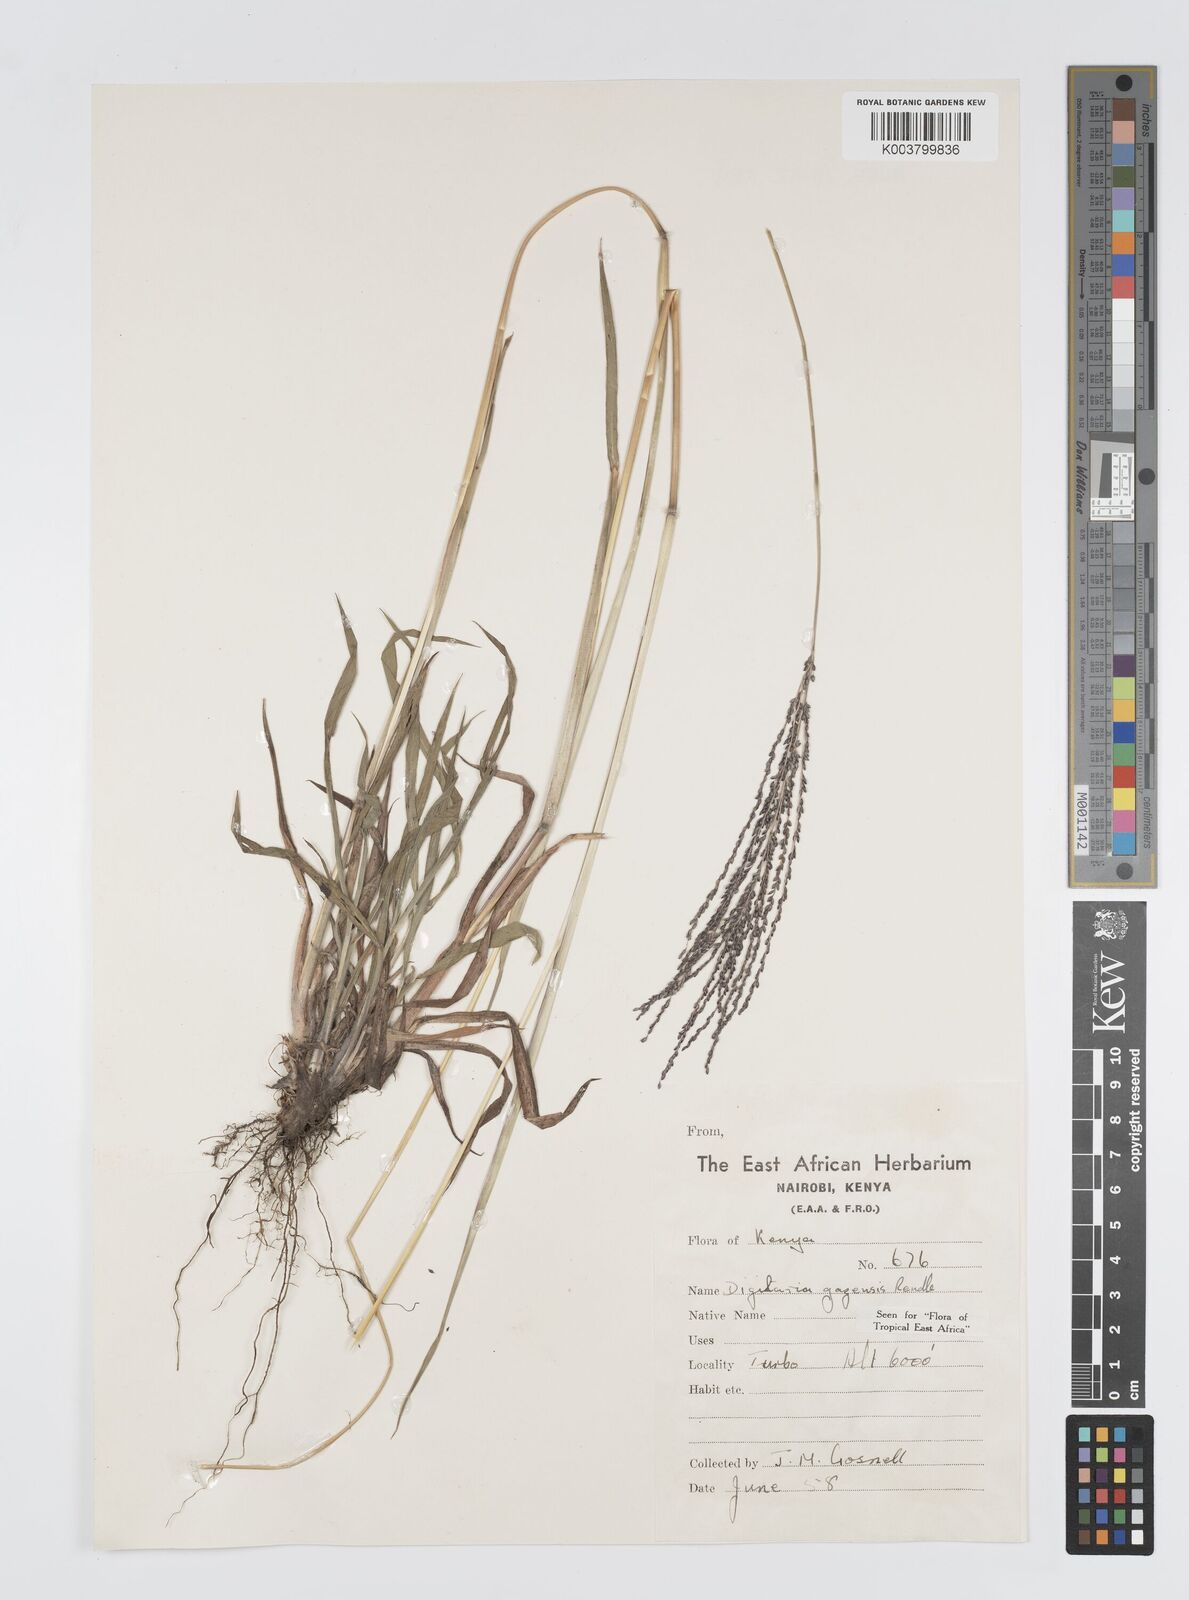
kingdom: Plantae
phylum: Tracheophyta
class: Liliopsida
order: Poales
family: Poaceae
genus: Digitaria
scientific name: Digitaria gazensis
